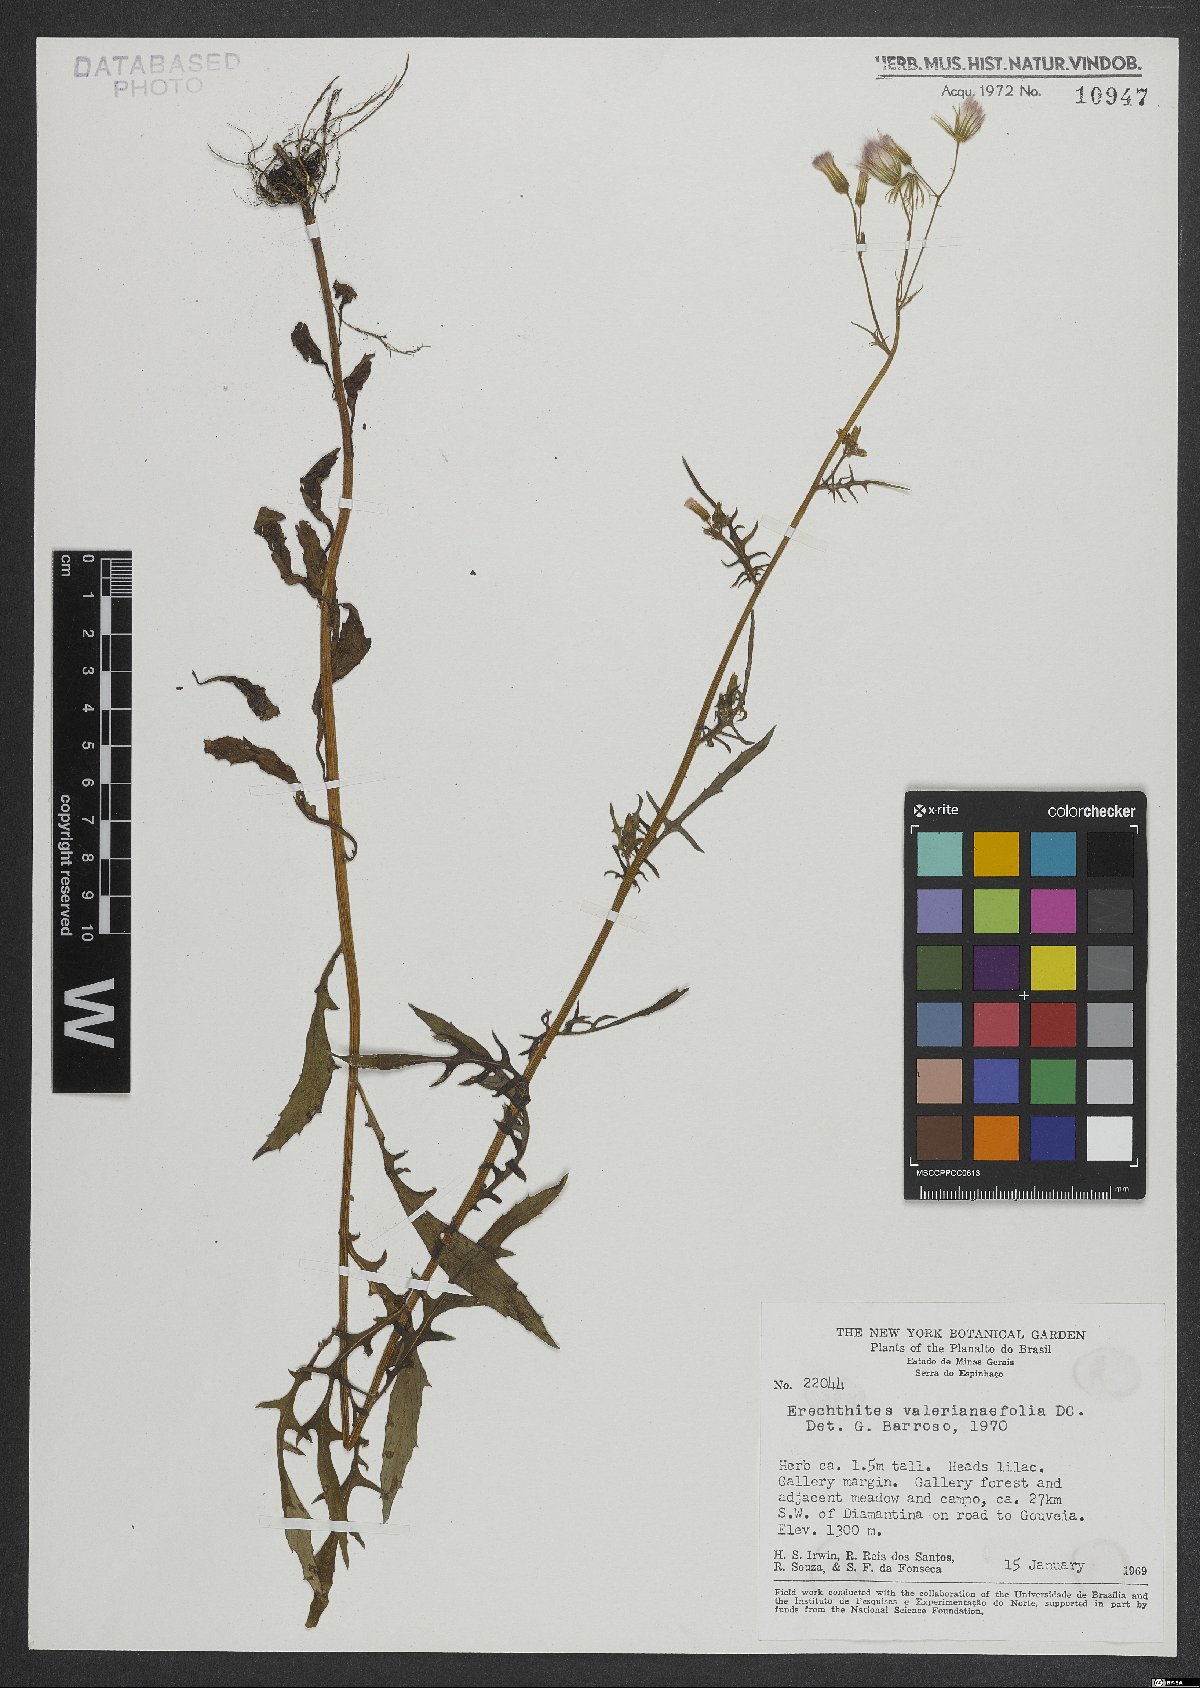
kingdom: Plantae
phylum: Tracheophyta
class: Magnoliopsida
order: Asterales
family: Asteraceae
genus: Erechtites
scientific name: Erechtites valerianifolius
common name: Tropical burnweed
